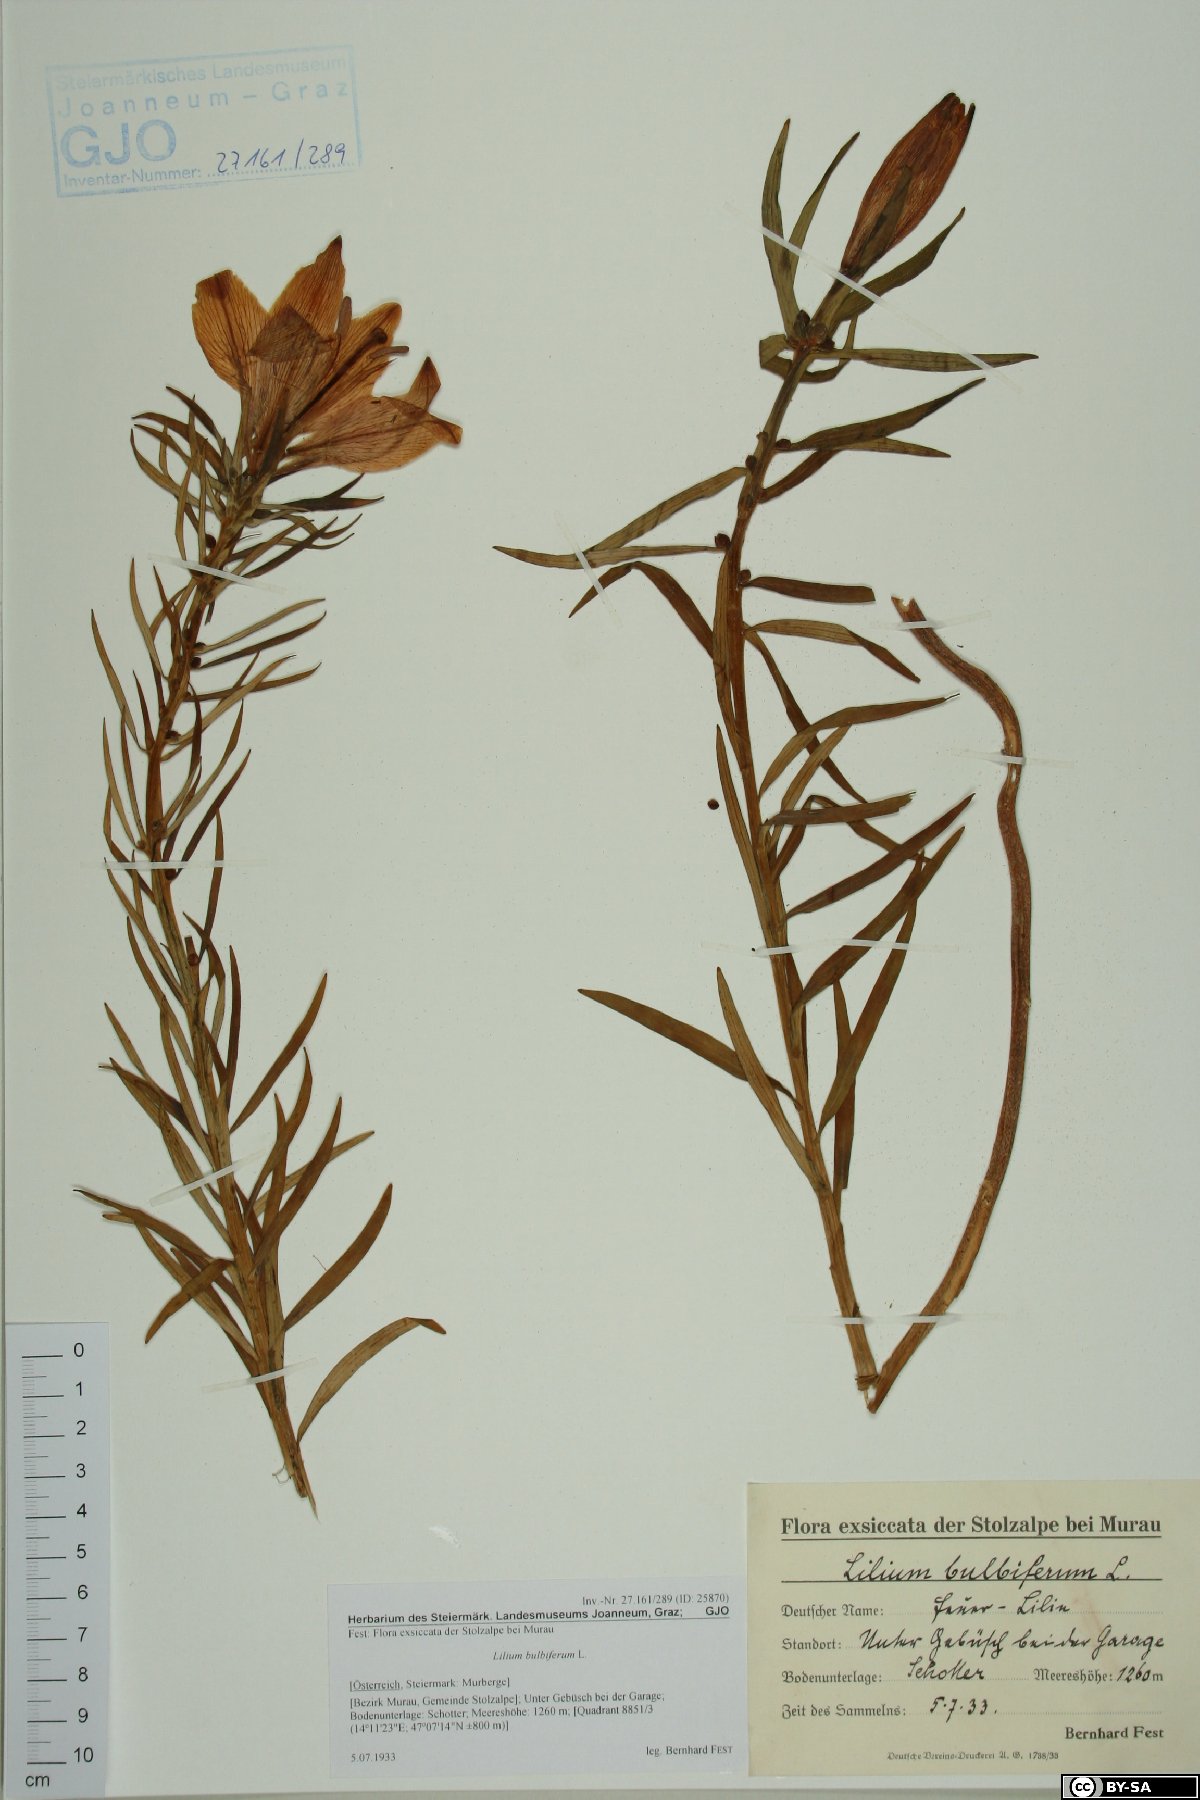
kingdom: Plantae
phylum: Tracheophyta
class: Liliopsida
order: Liliales
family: Liliaceae
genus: Lilium
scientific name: Lilium bulbiferum
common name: Orange lily
